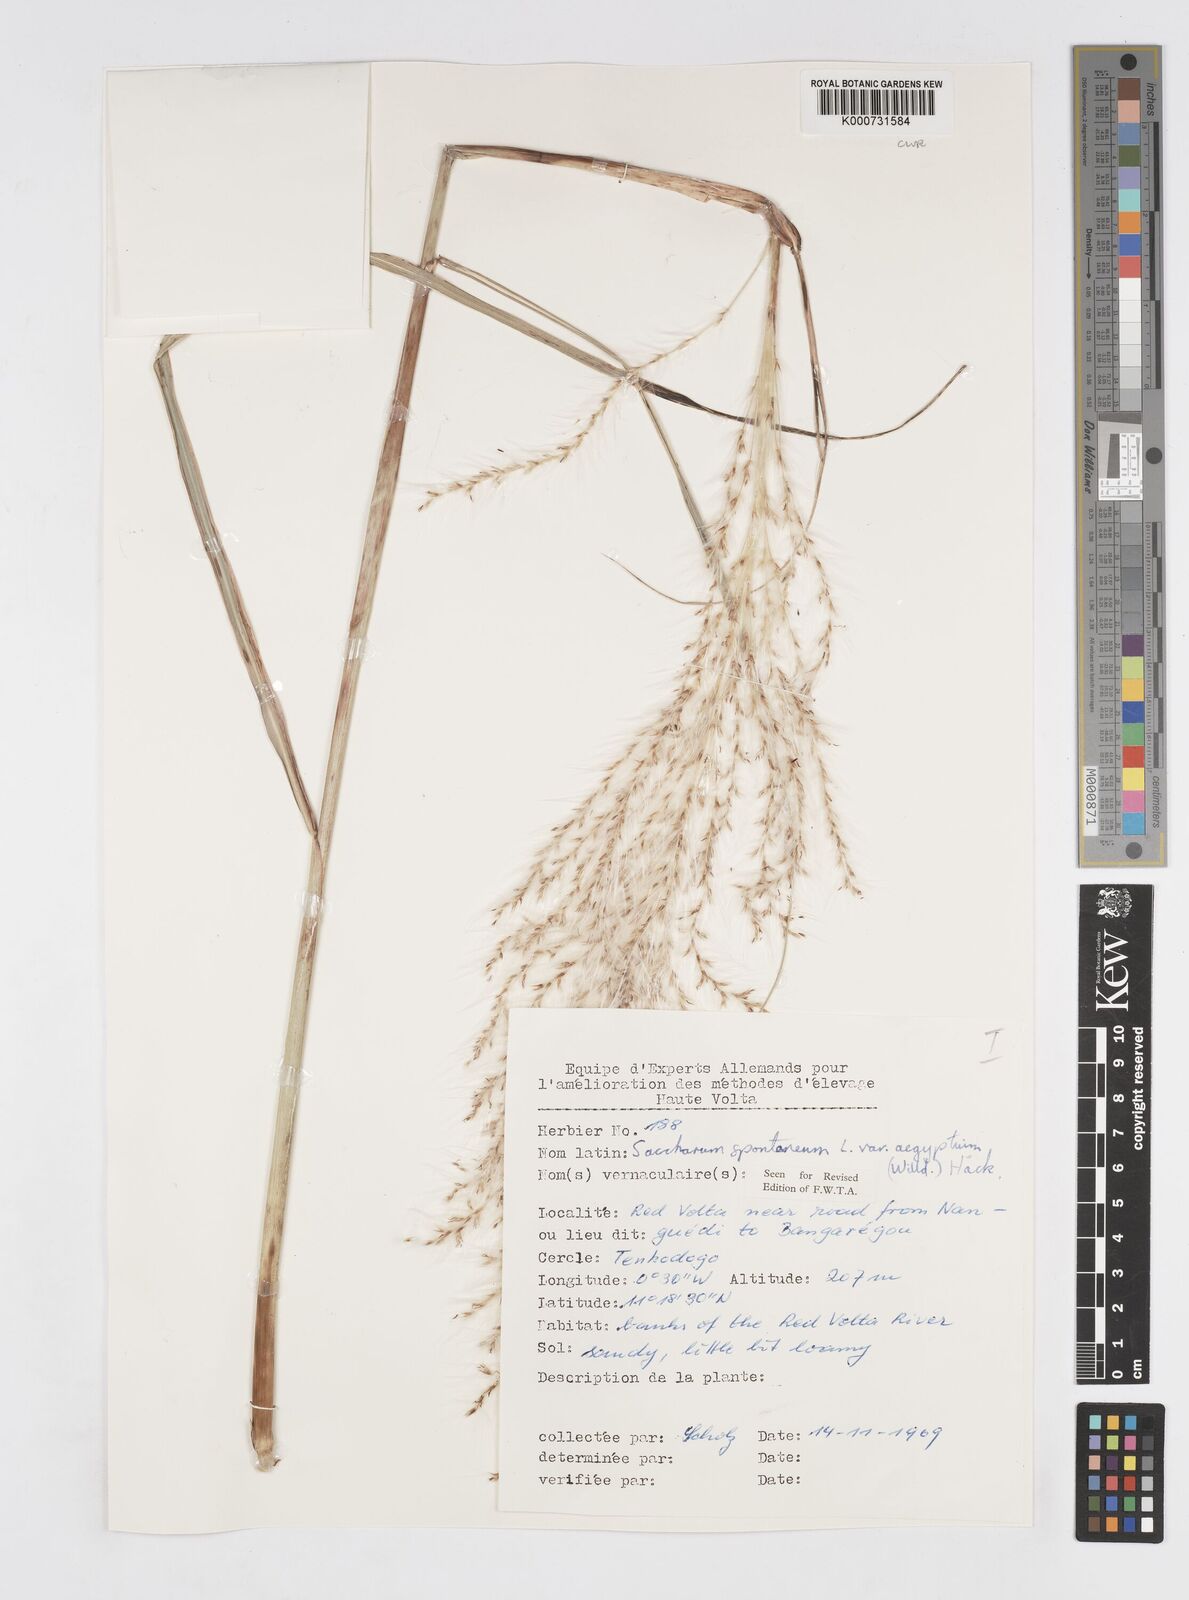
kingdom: Plantae
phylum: Tracheophyta
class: Liliopsida
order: Poales
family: Poaceae
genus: Saccharum
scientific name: Saccharum spontaneum
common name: Wild sugarcane
